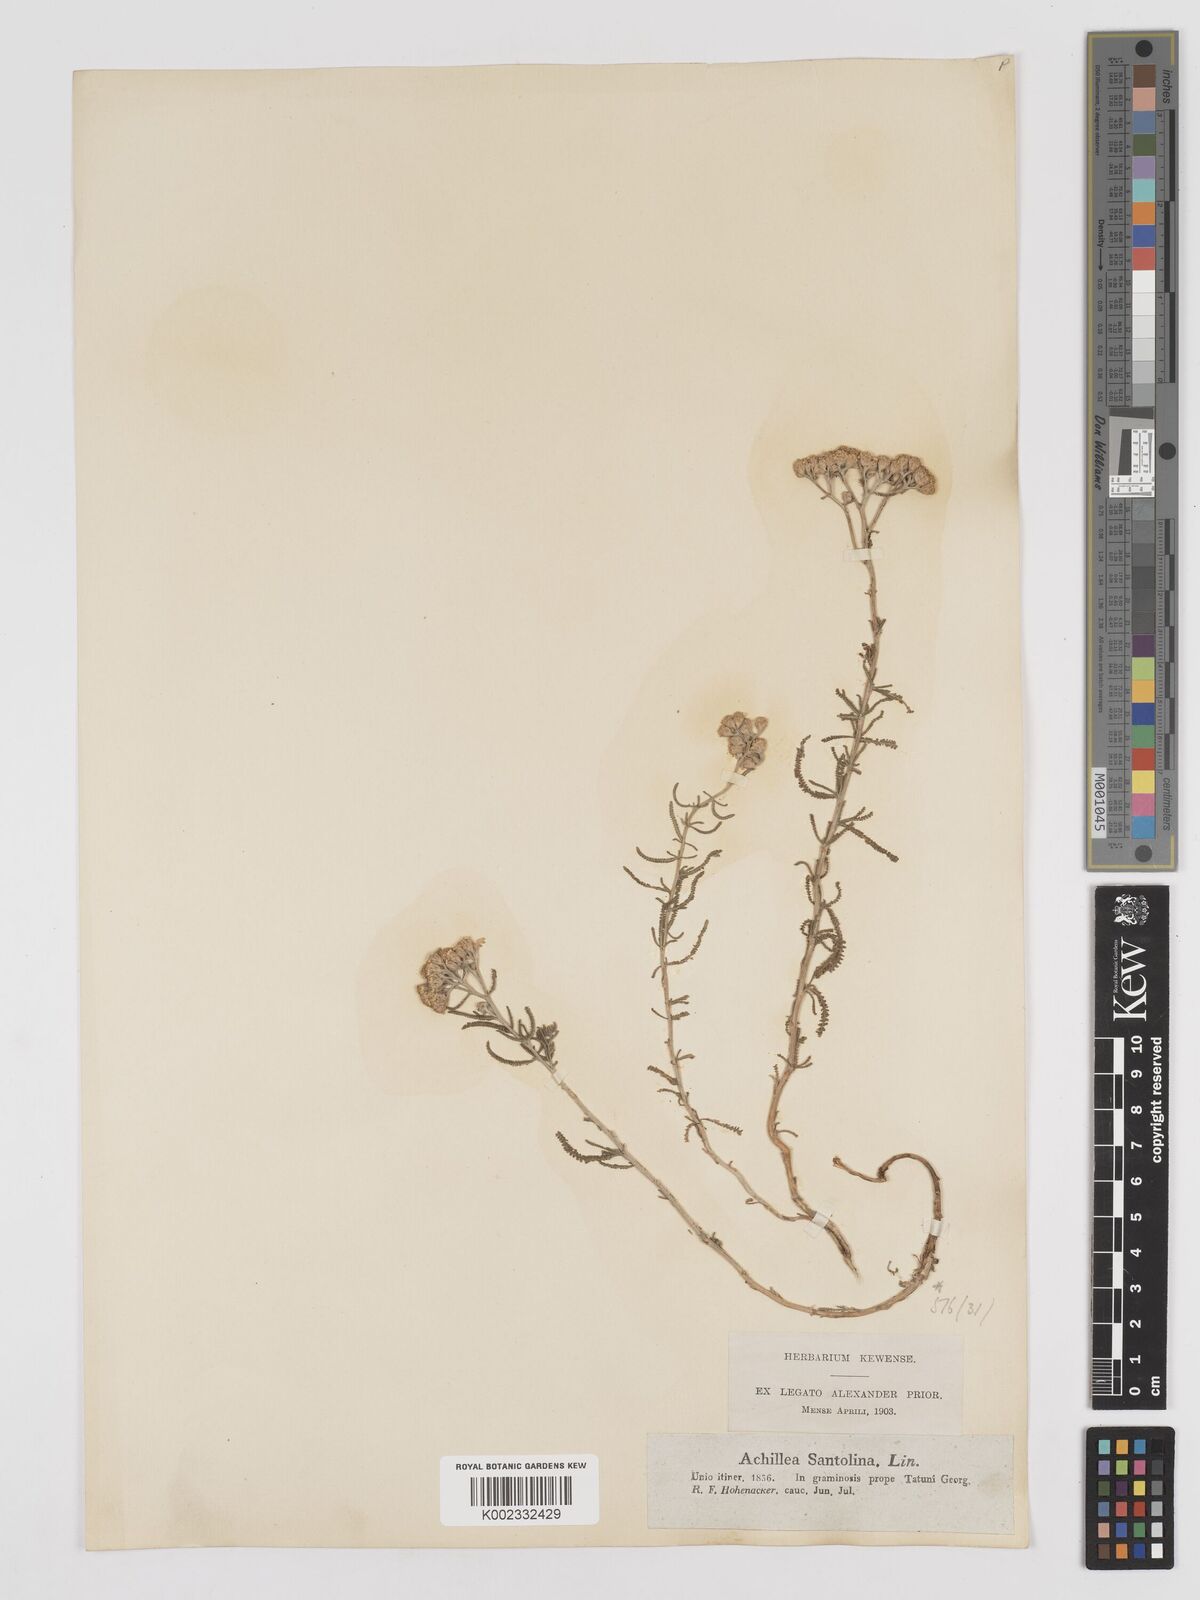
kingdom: Plantae
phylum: Tracheophyta
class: Magnoliopsida
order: Asterales
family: Asteraceae
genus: Achillea
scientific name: Achillea tenuifolia
